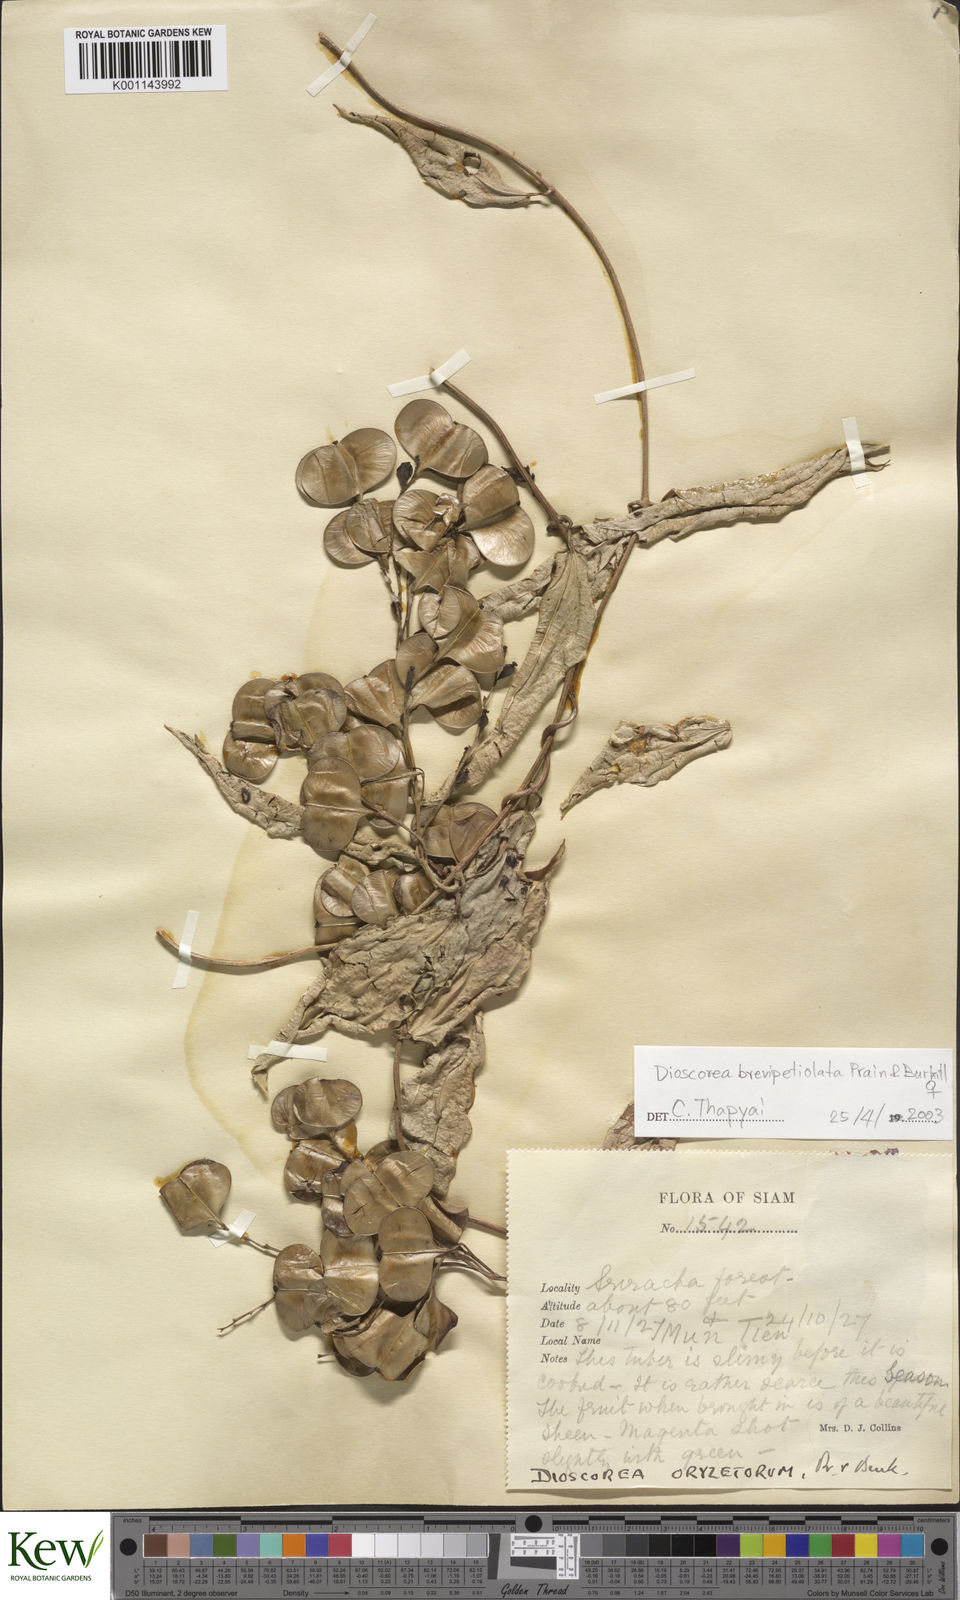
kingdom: Plantae
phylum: Tracheophyta
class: Liliopsida
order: Dioscoreales
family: Dioscoreaceae
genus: Dioscorea
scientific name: Dioscorea brevipetiolata
